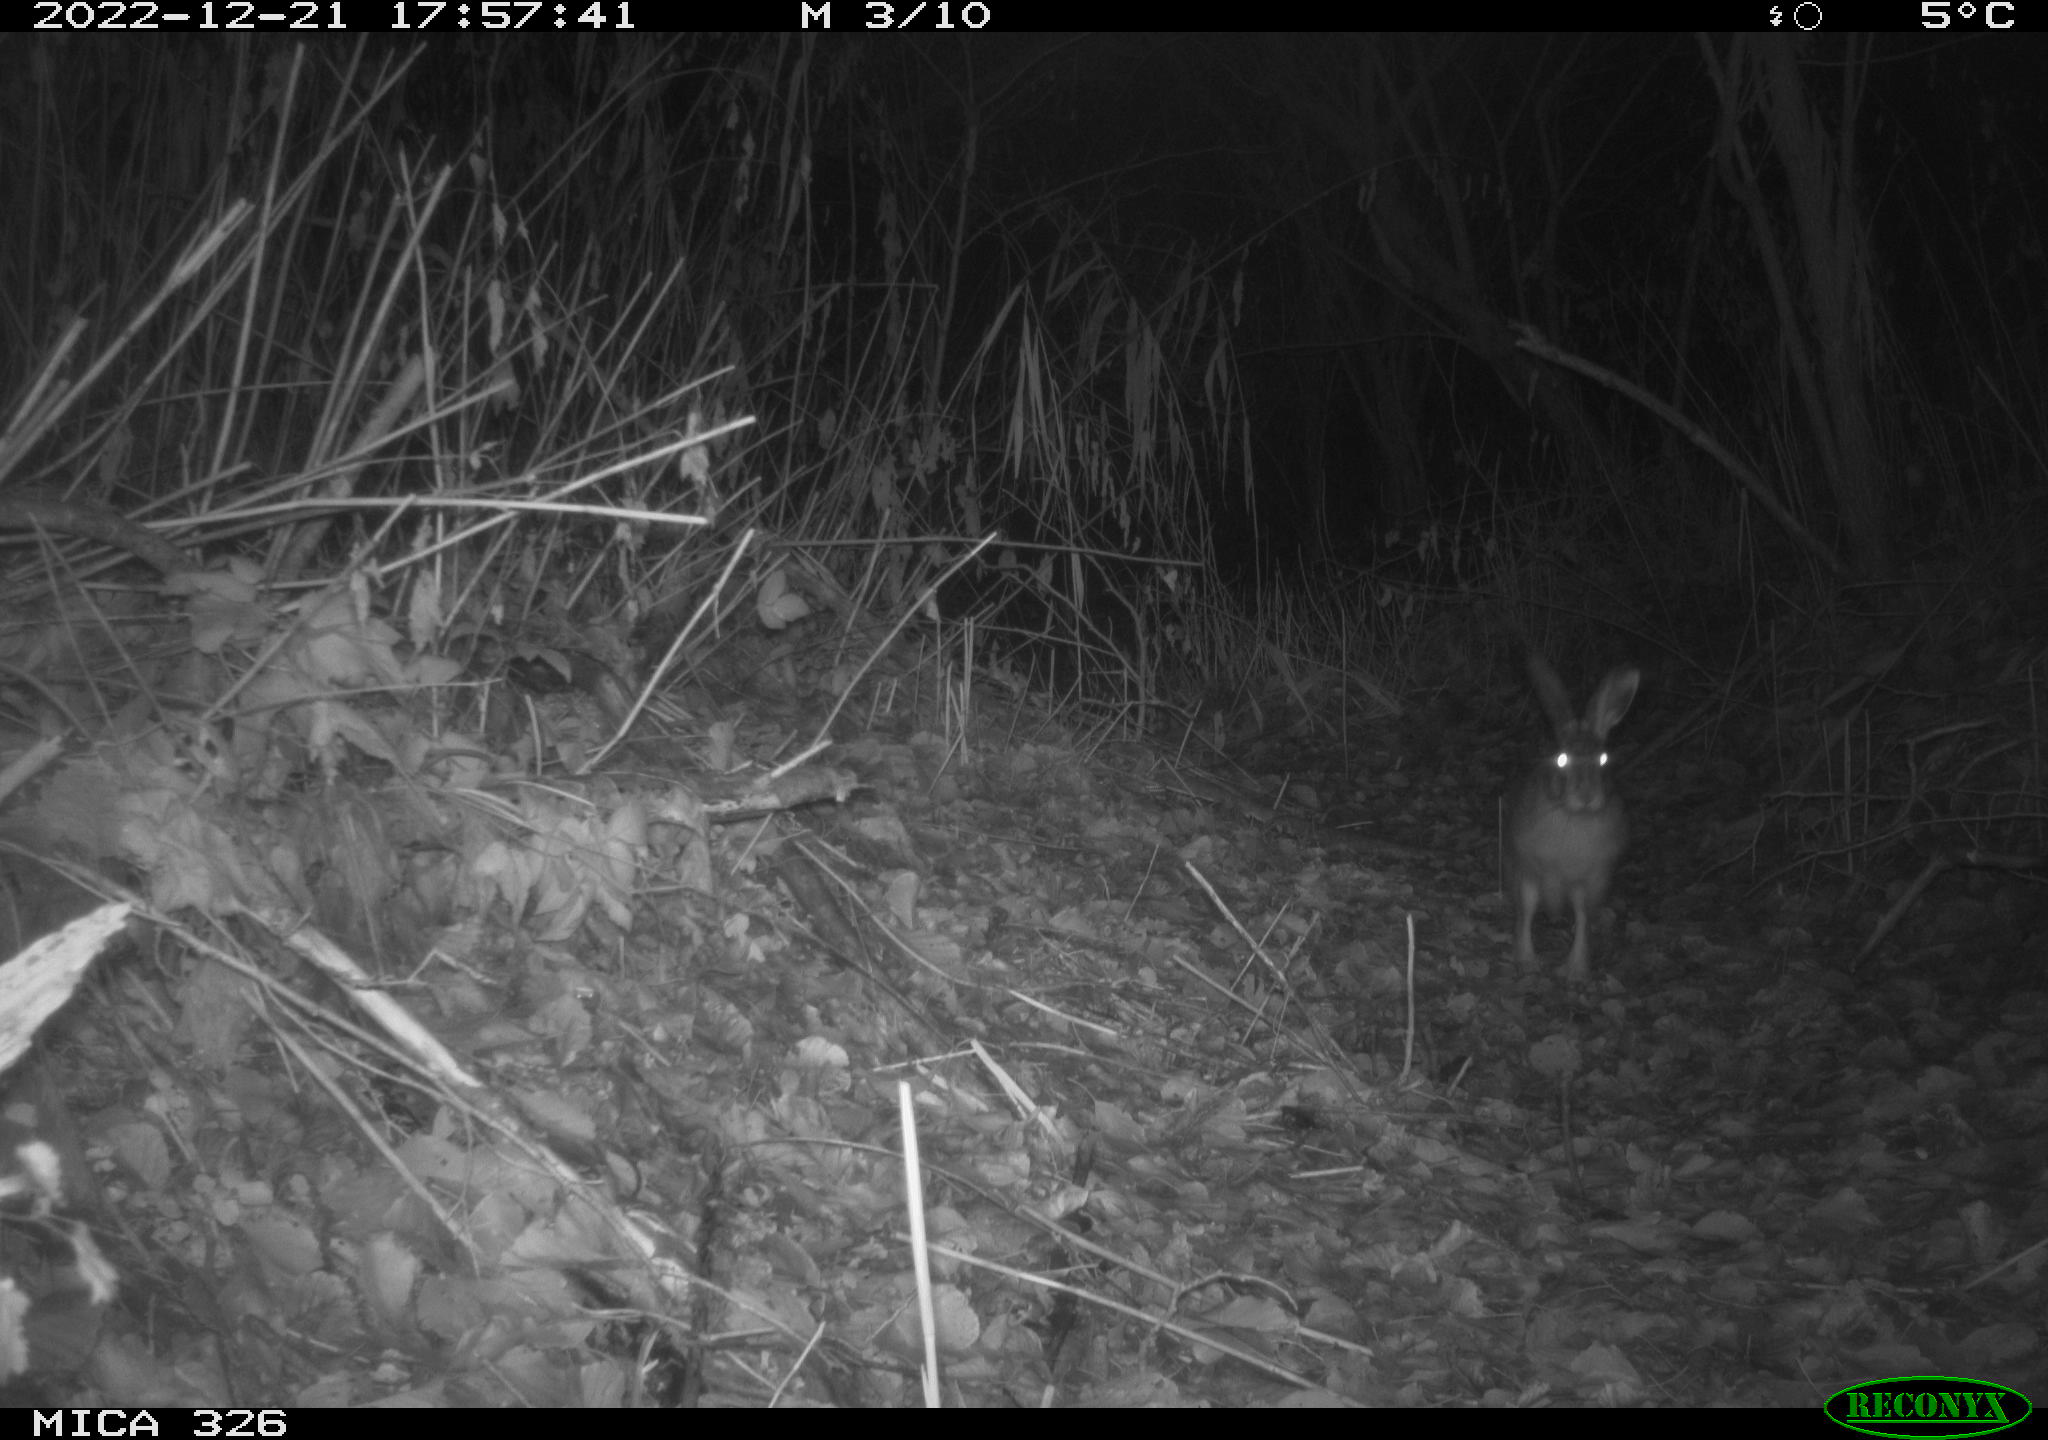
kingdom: Animalia
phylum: Chordata
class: Mammalia
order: Lagomorpha
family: Leporidae
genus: Lepus
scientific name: Lepus europaeus
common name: European hare
